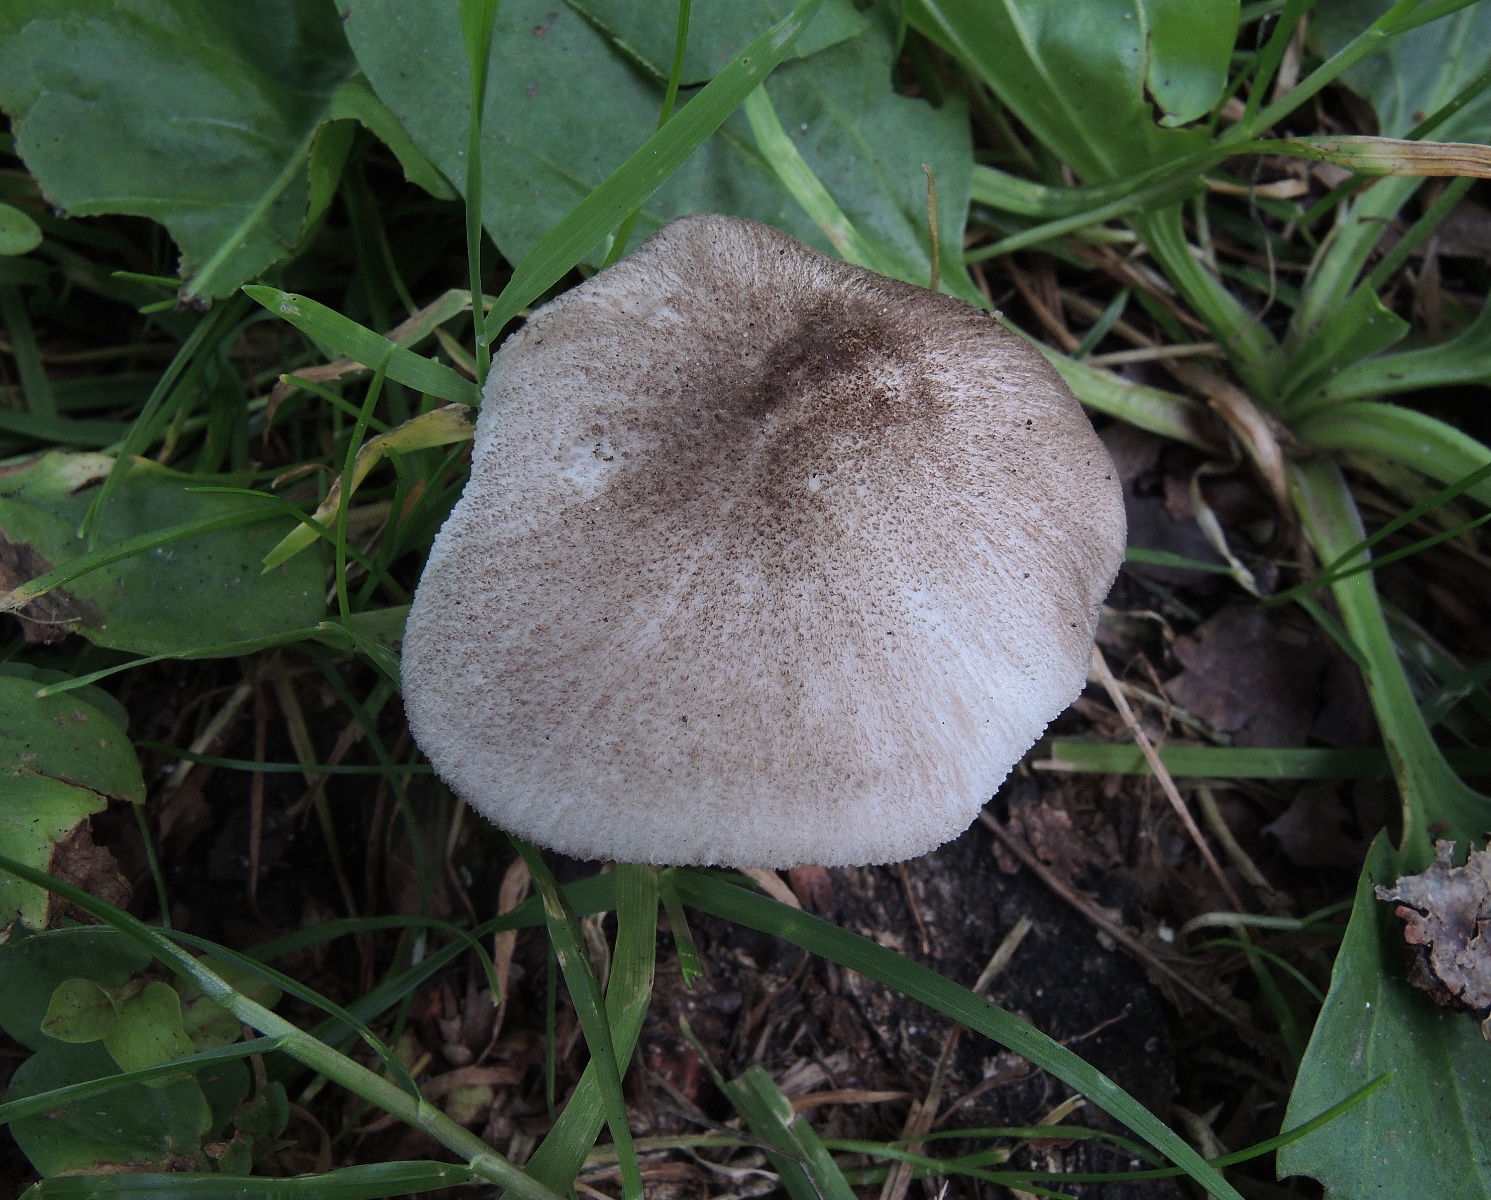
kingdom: Fungi
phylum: Basidiomycota
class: Agaricomycetes
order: Agaricales
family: Pluteaceae
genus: Pluteus
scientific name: Pluteus
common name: gråfibret skærmhat
